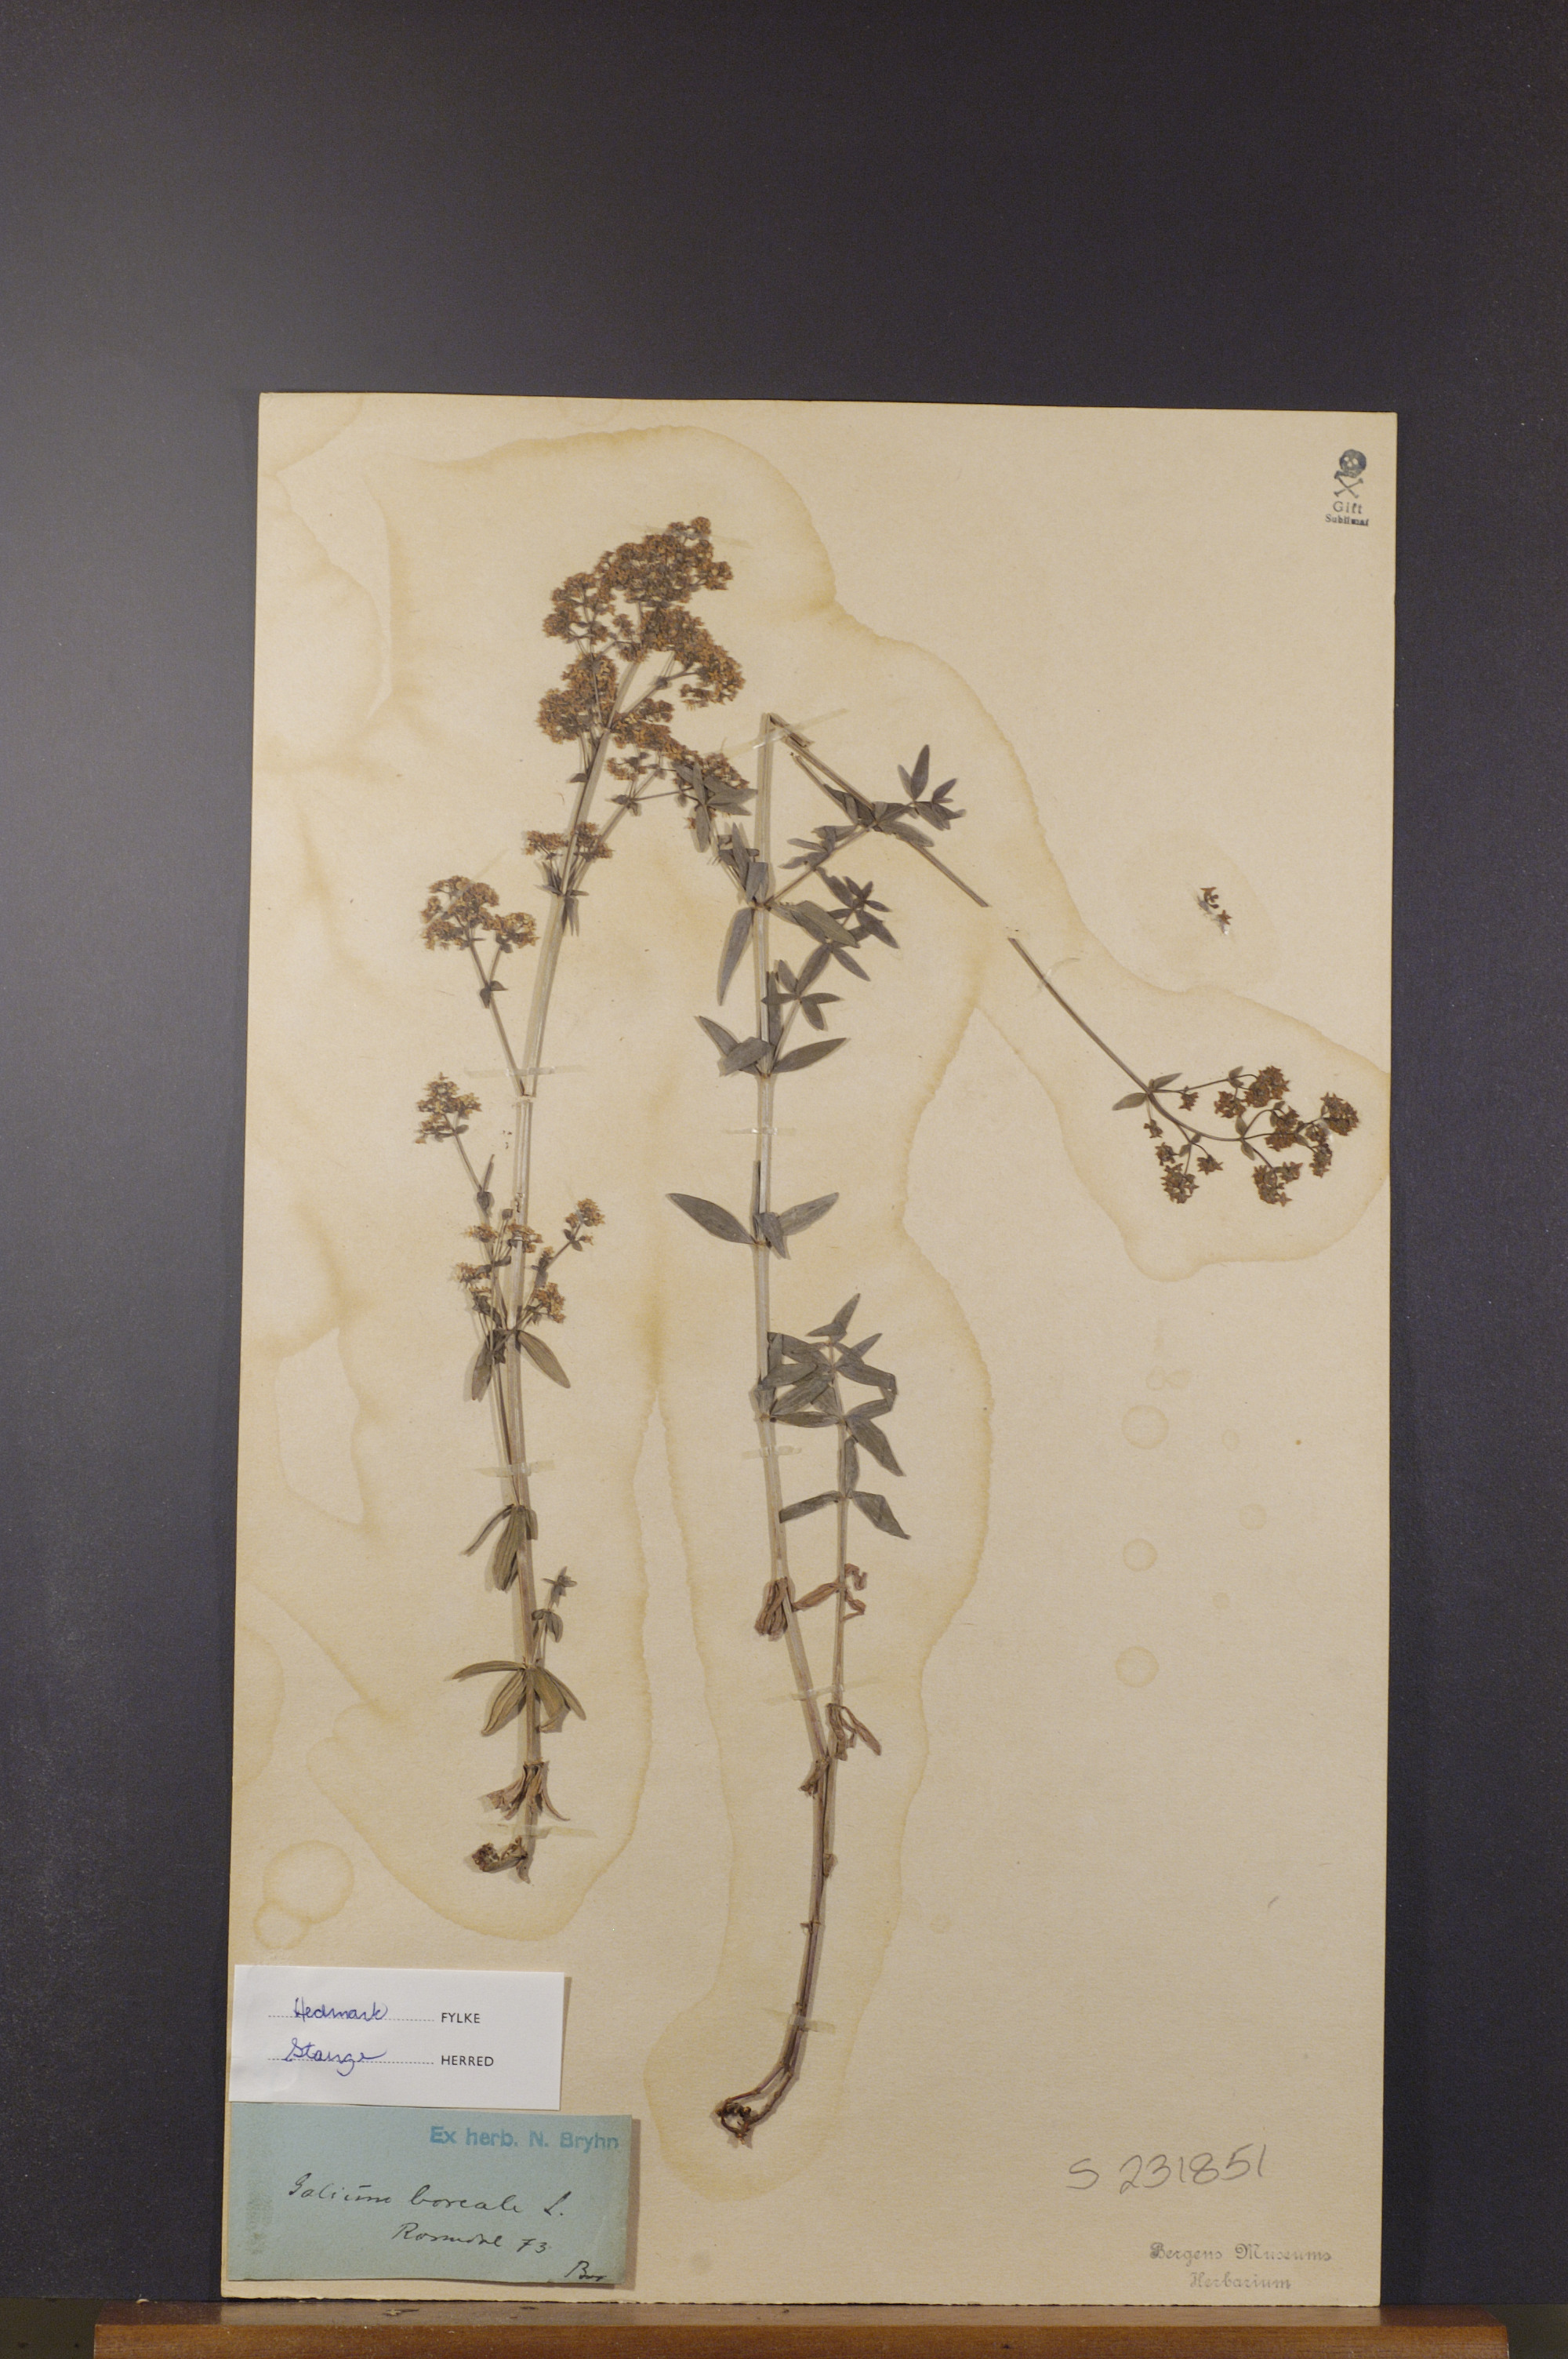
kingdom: Plantae
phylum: Tracheophyta
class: Magnoliopsida
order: Gentianales
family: Rubiaceae
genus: Galium
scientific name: Galium boreale
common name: Northern bedstraw
